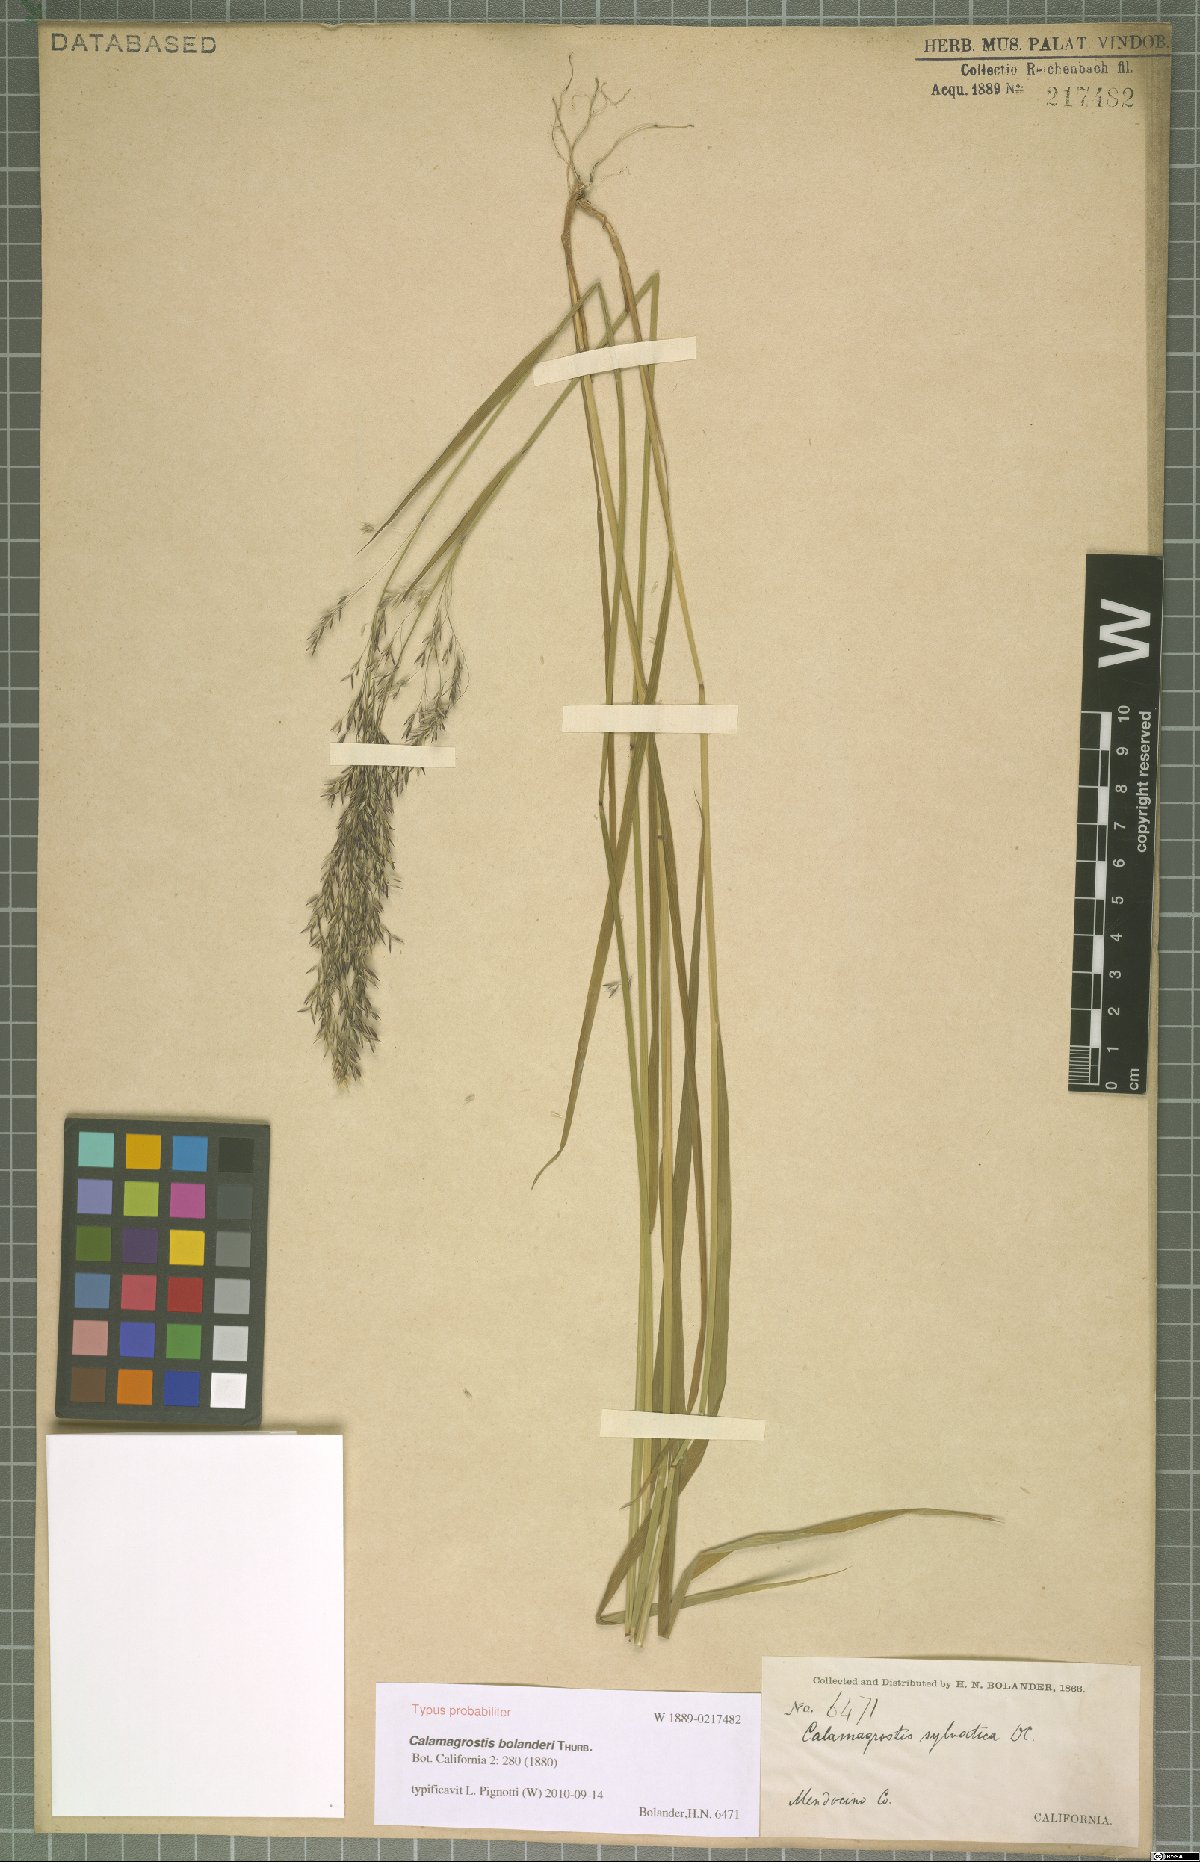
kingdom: Plantae
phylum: Tracheophyta
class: Liliopsida
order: Poales
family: Poaceae
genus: Calamagrostis
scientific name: Calamagrostis bolanderi
